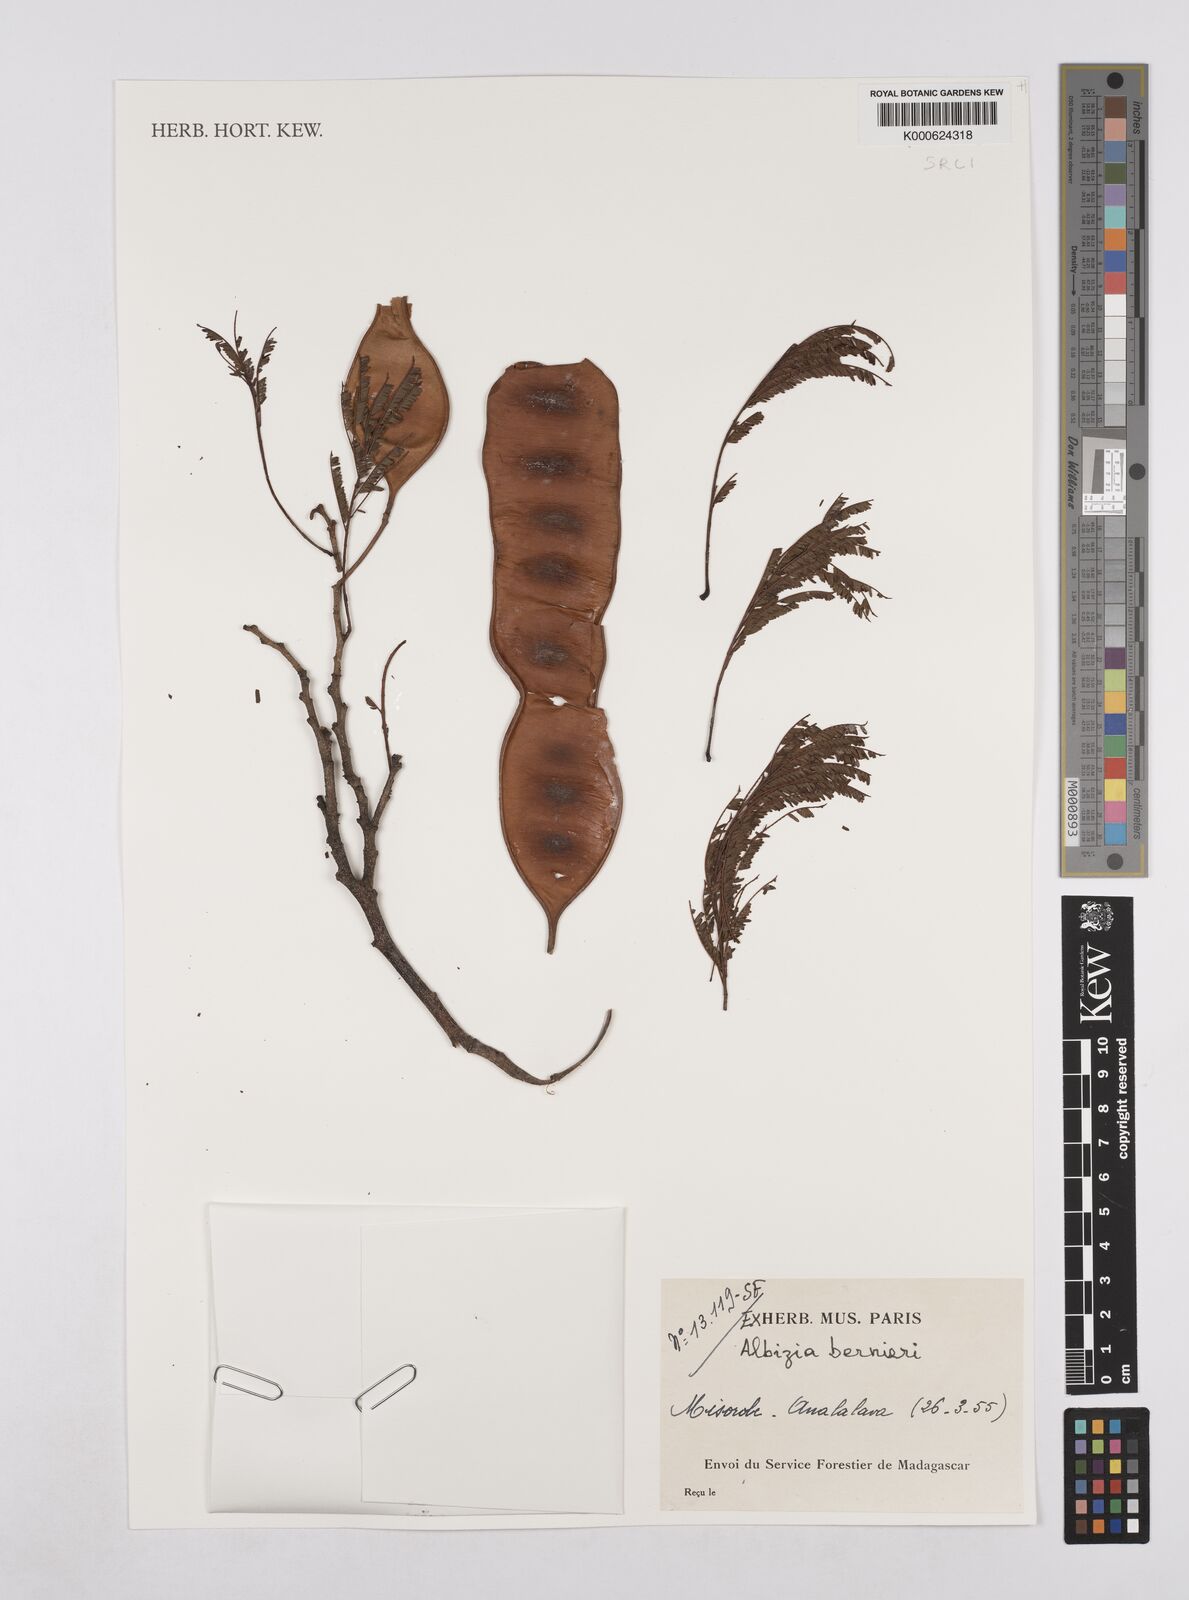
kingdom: Plantae
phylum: Tracheophyta
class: Magnoliopsida
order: Fabales
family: Fabaceae
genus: Albizia
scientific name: Albizia bernieri
